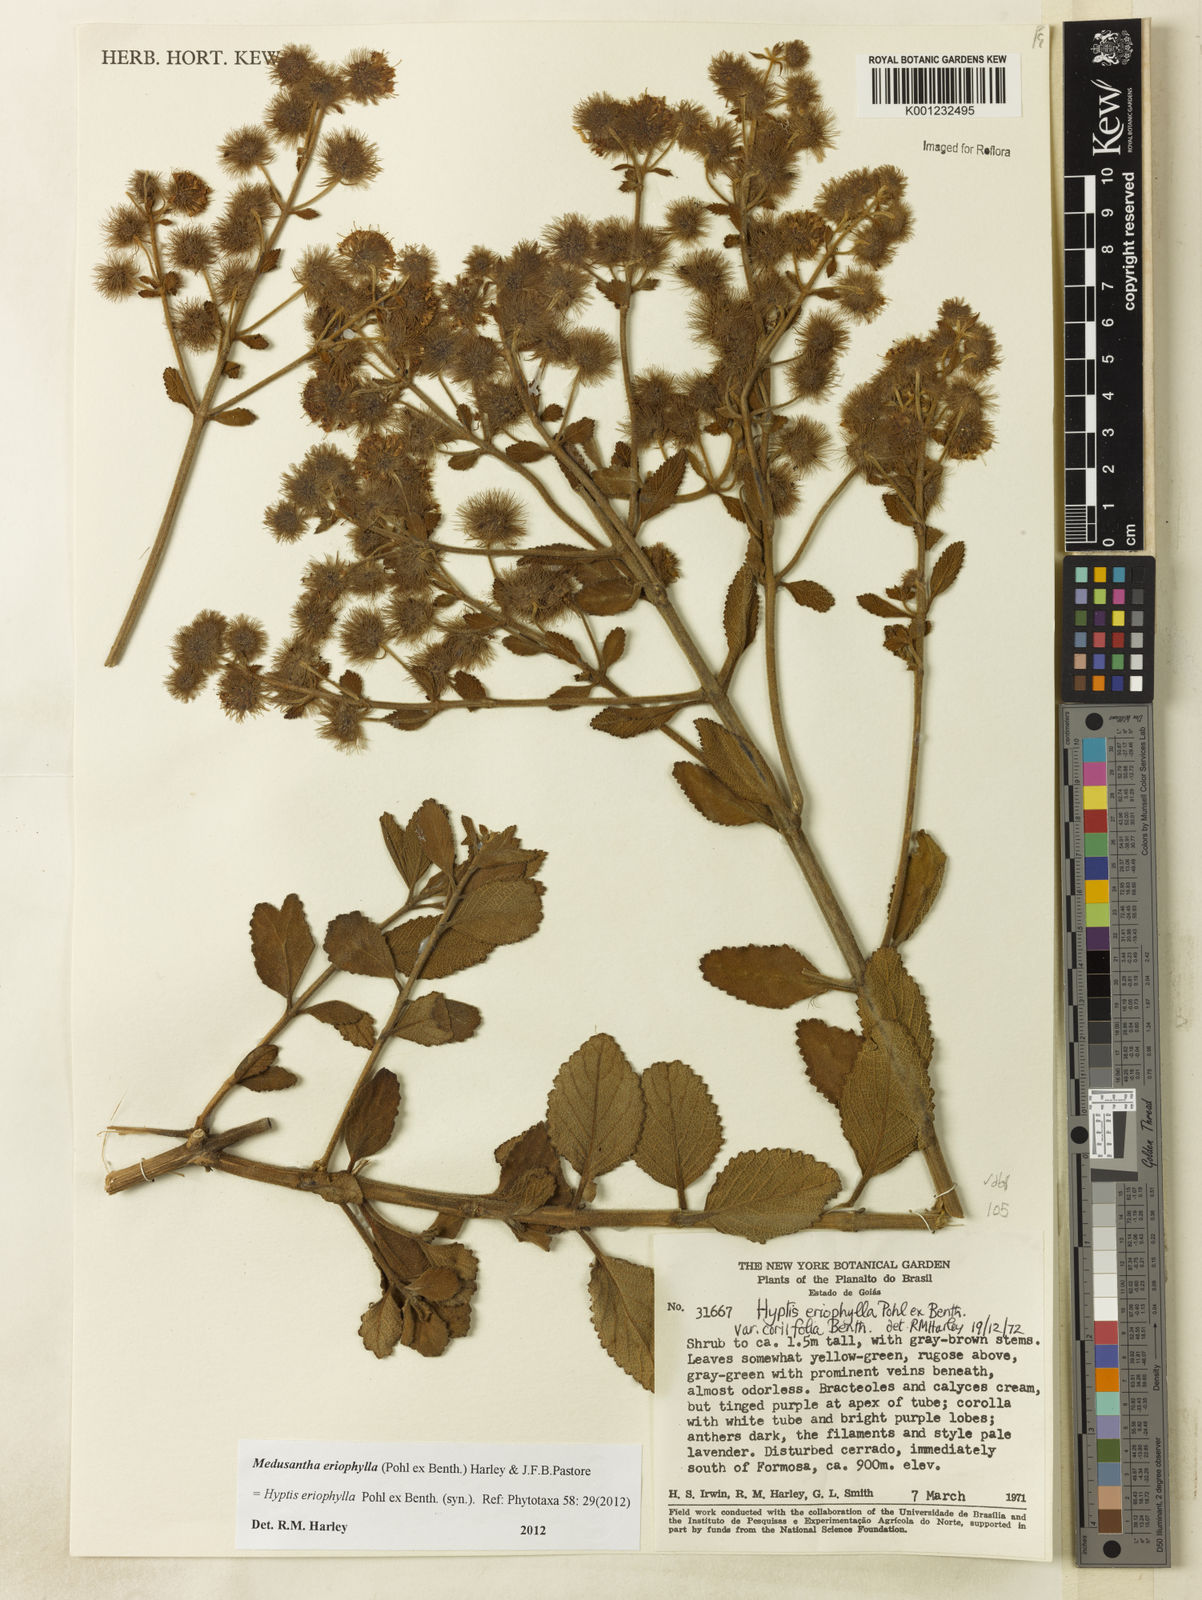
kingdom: Plantae
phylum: Tracheophyta
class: Magnoliopsida
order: Lamiales
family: Lamiaceae
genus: Medusantha
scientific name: Medusantha eriophylla
